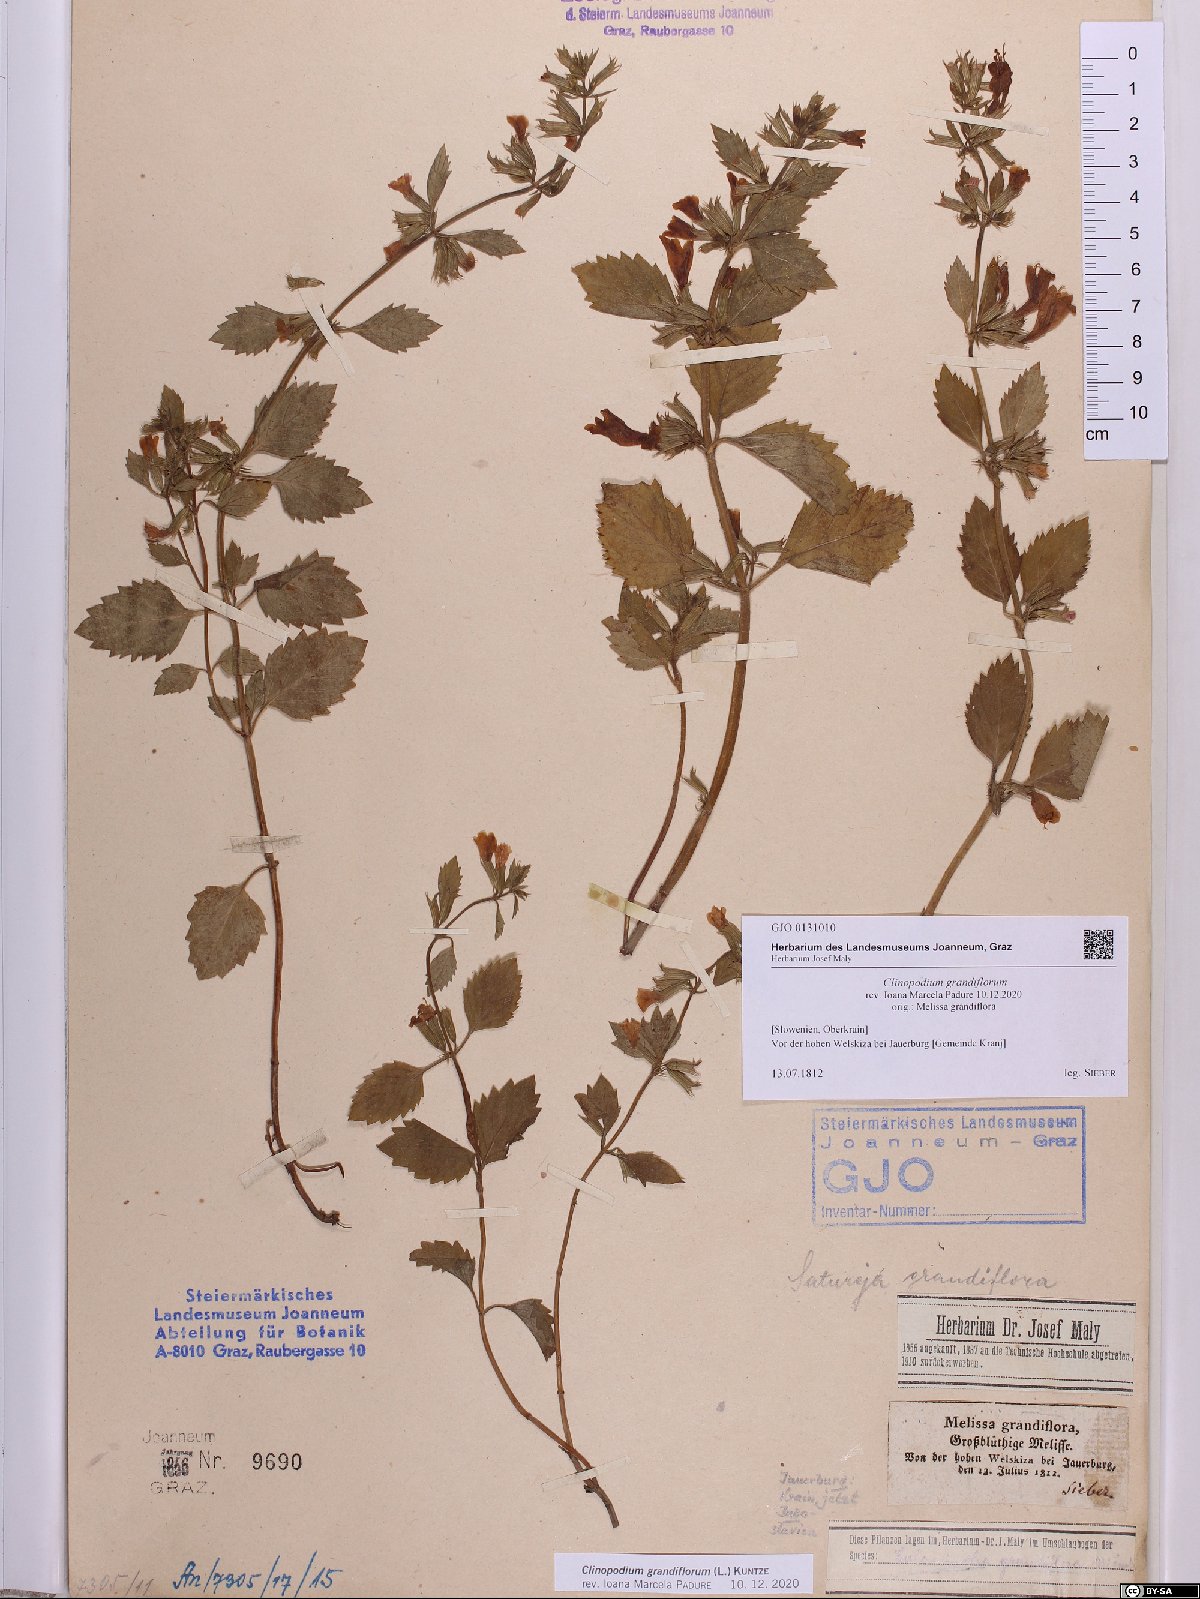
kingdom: Plantae
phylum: Tracheophyta
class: Magnoliopsida
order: Lamiales
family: Lamiaceae
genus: Clinopodium
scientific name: Clinopodium grandiflorum
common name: Greater calamint
